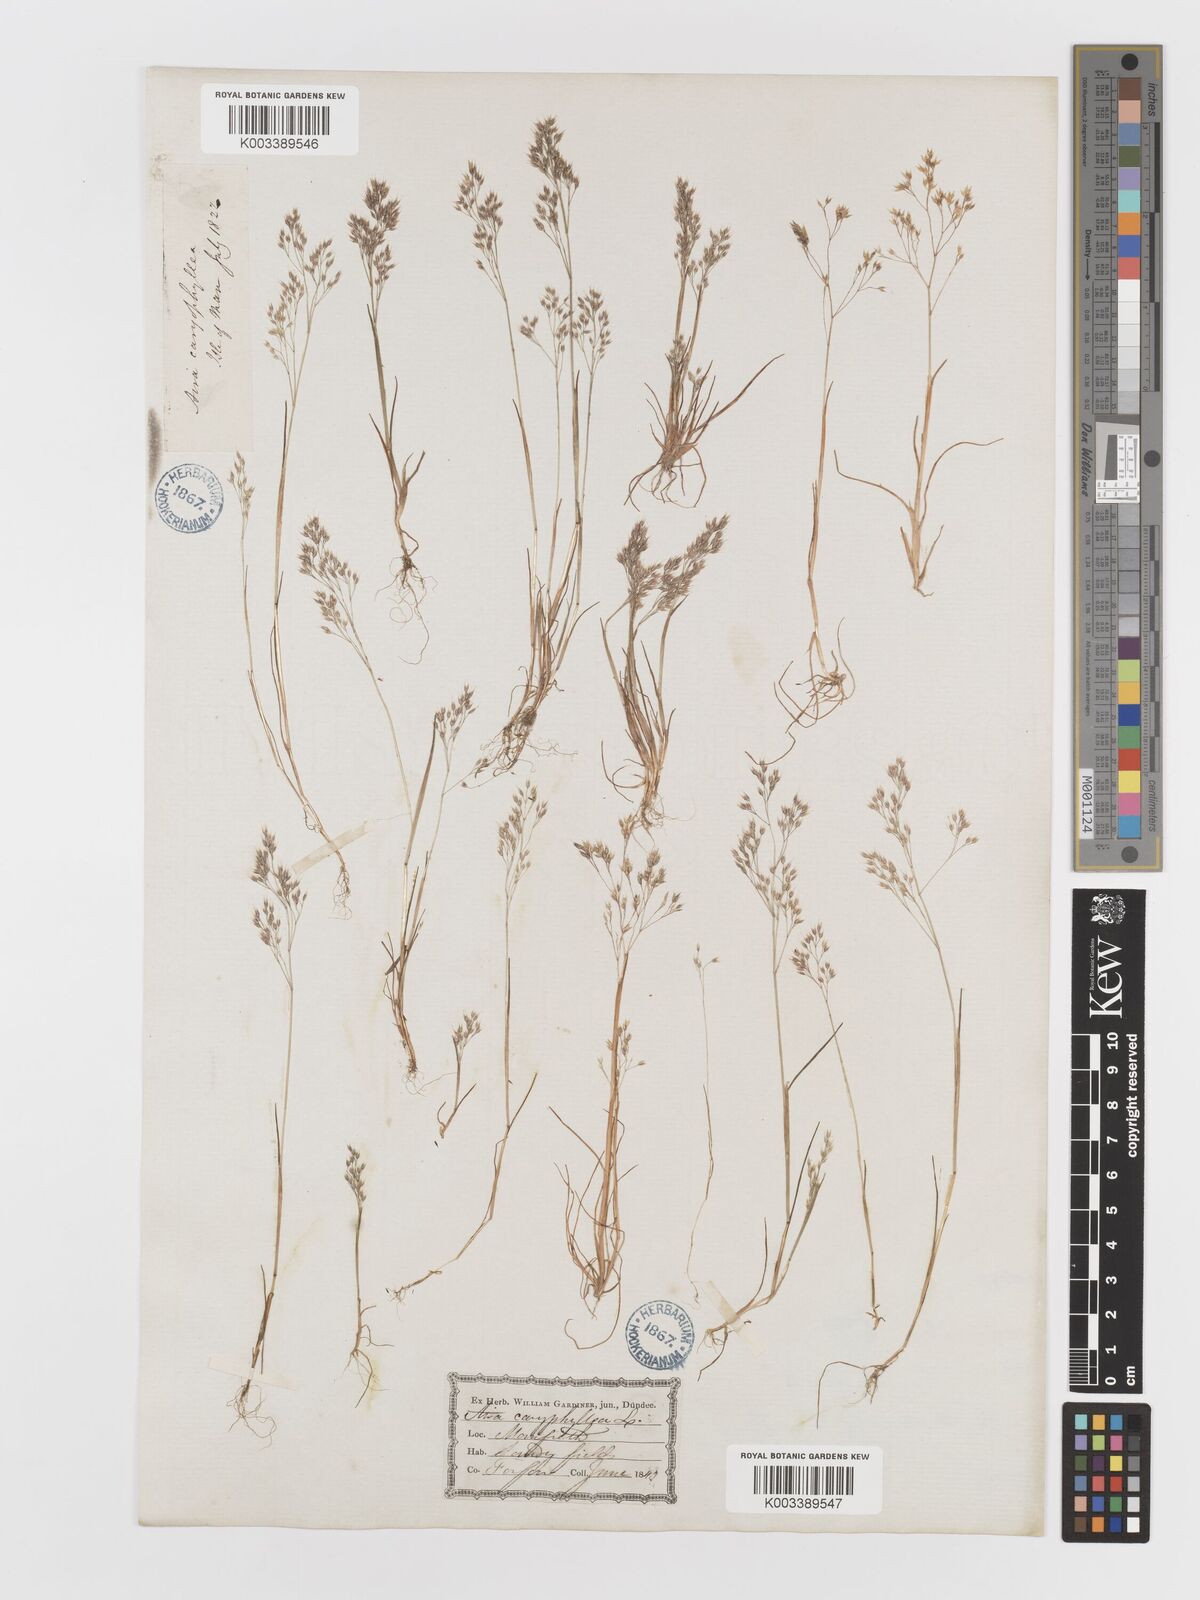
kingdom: Plantae
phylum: Tracheophyta
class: Liliopsida
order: Poales
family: Poaceae
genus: Aira
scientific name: Aira caryophyllea
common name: Silver hairgrass
